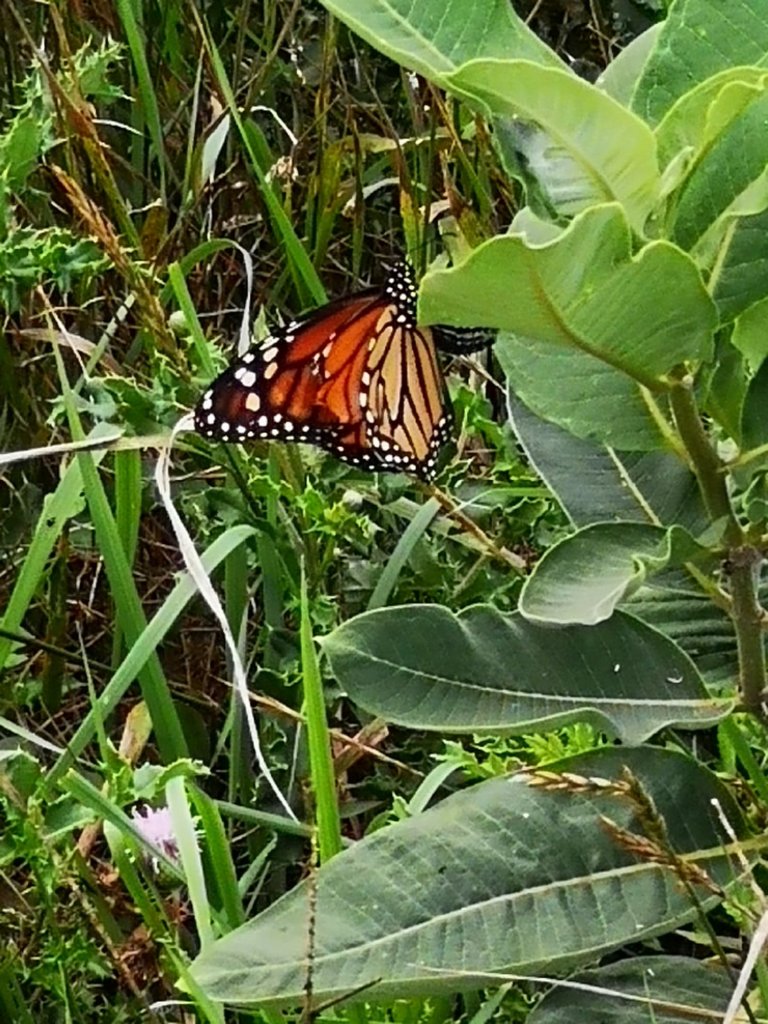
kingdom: Animalia
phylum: Arthropoda
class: Insecta
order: Lepidoptera
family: Nymphalidae
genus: Danaus
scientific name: Danaus plexippus
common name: Monarch
